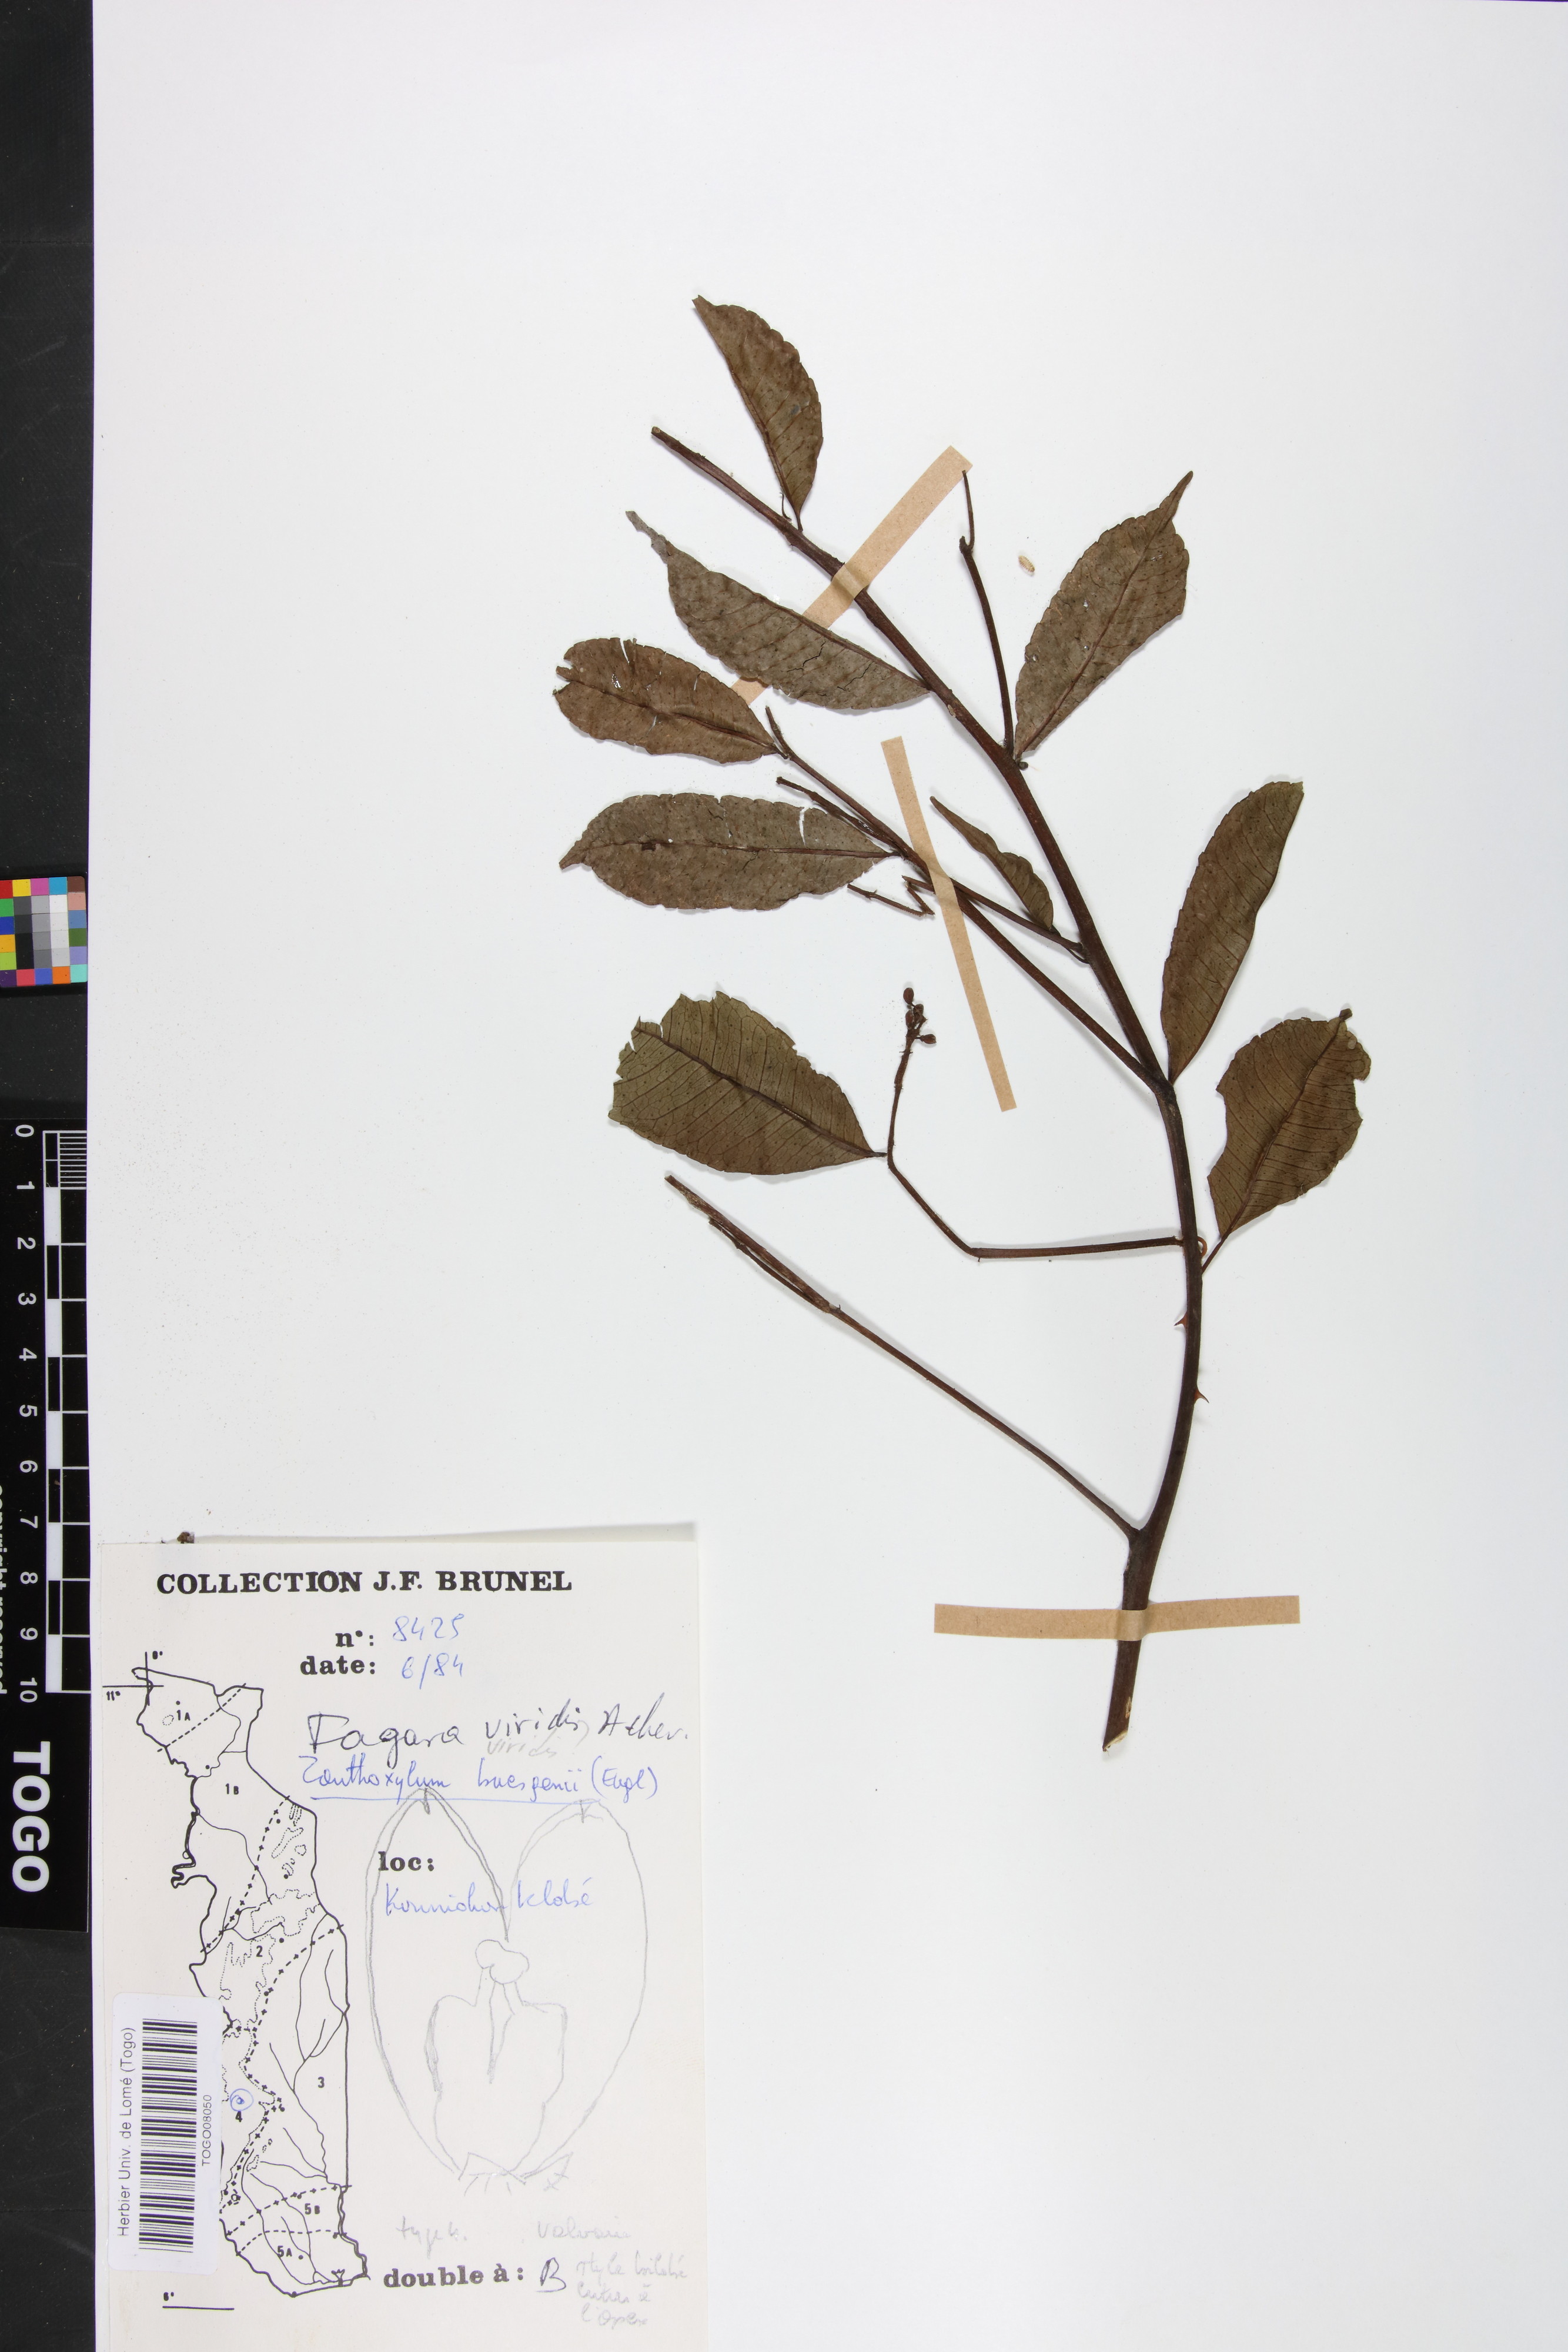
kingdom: Plantae
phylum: Tracheophyta
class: Magnoliopsida
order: Sapindales
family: Rutaceae
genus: Zanthoxylum
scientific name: Zanthoxylum viride
